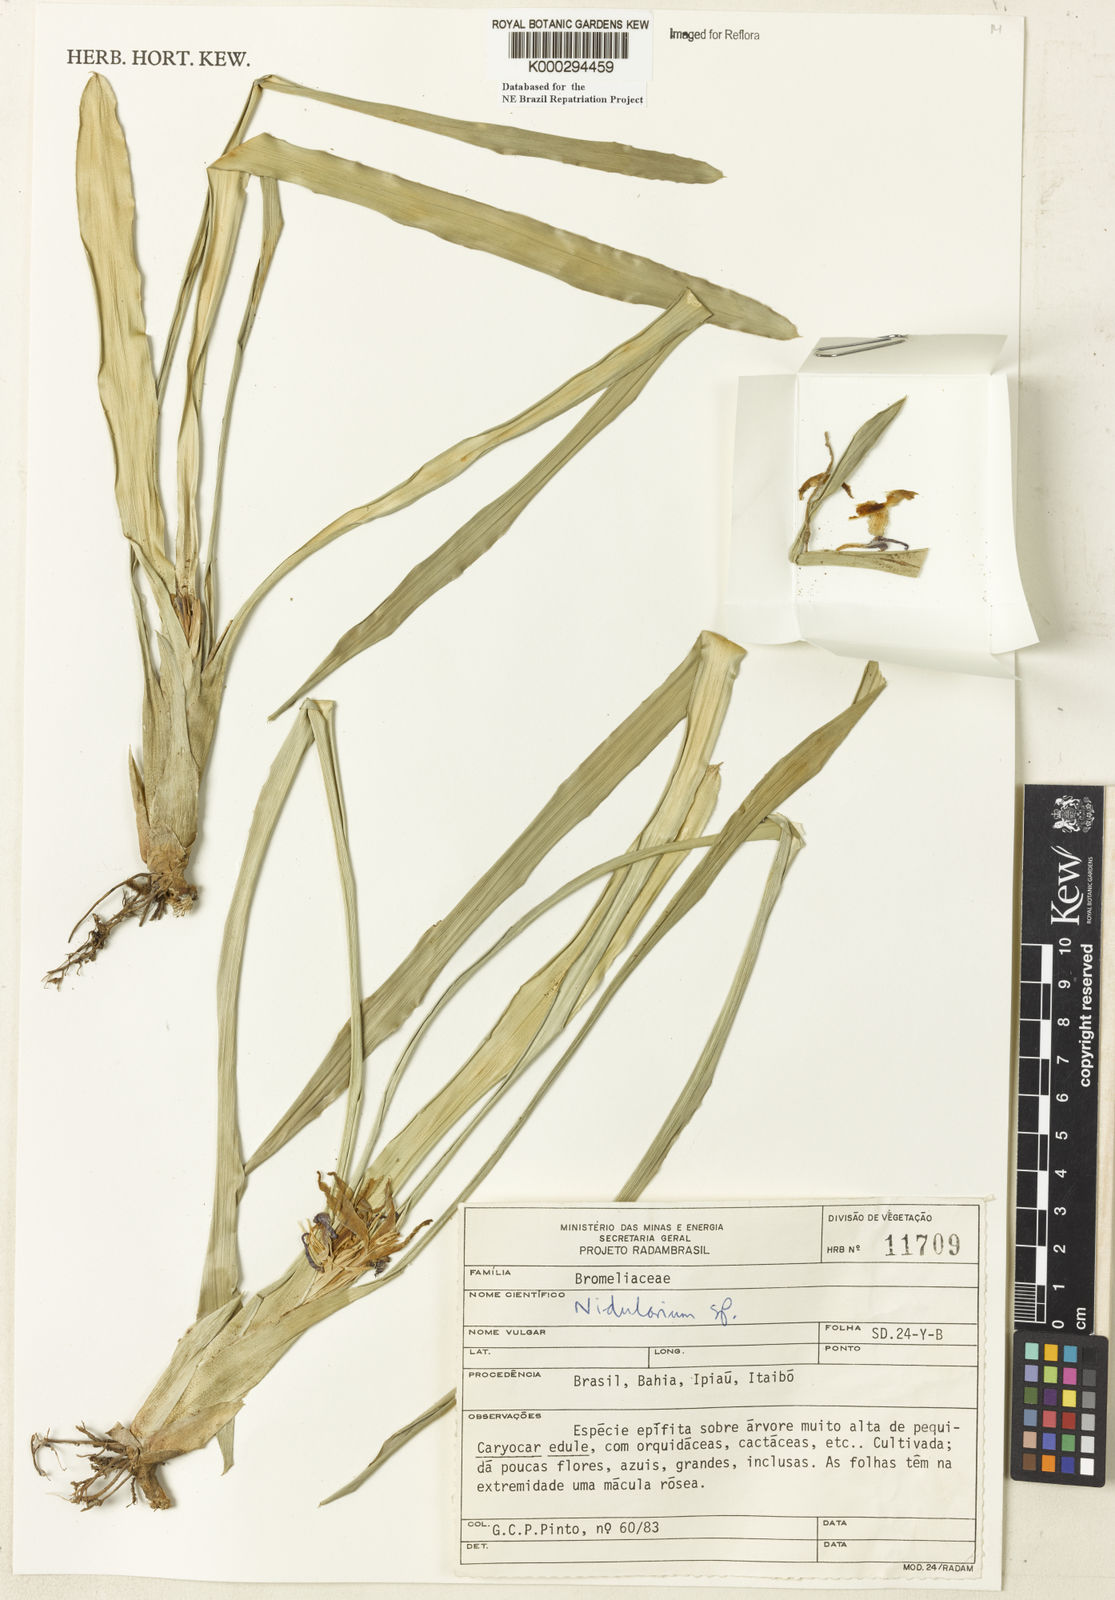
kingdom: Plantae
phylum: Tracheophyta
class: Liliopsida
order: Poales
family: Bromeliaceae
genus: Nidularium
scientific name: Nidularium
